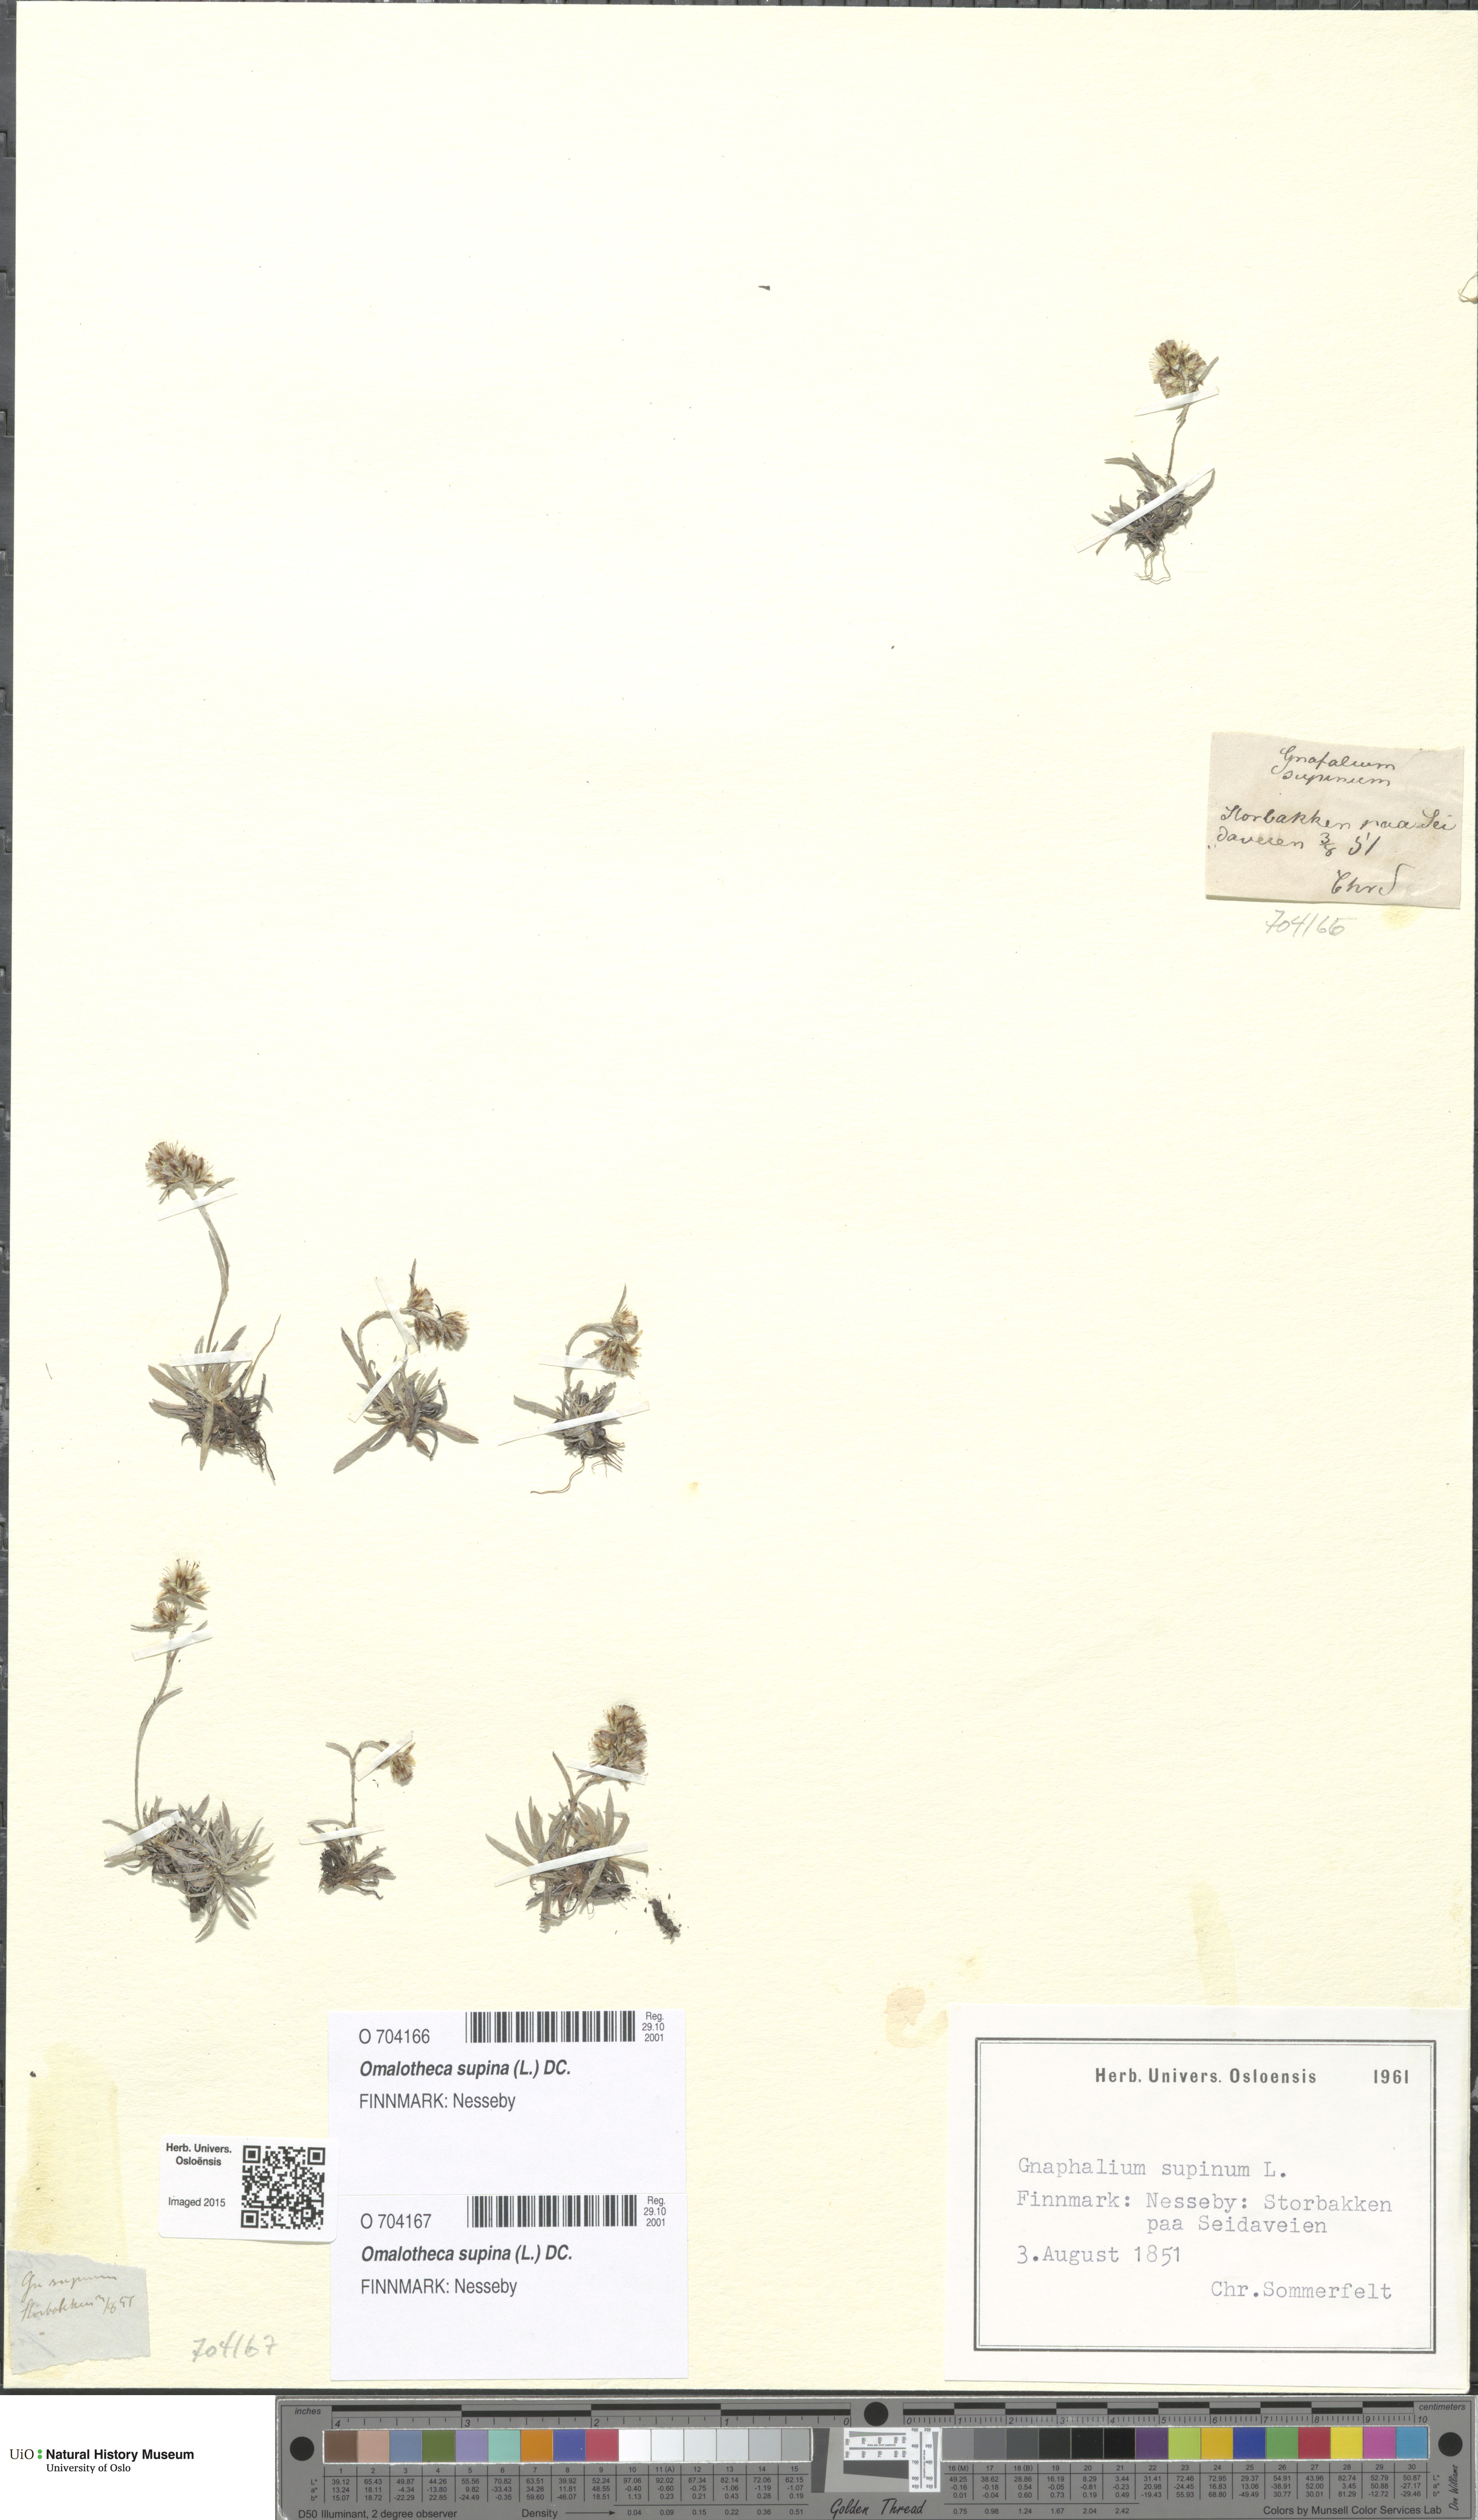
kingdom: Plantae
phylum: Tracheophyta
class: Magnoliopsida
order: Asterales
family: Asteraceae
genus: Omalotheca
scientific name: Omalotheca supina
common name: Alpine arctic-cudweed
